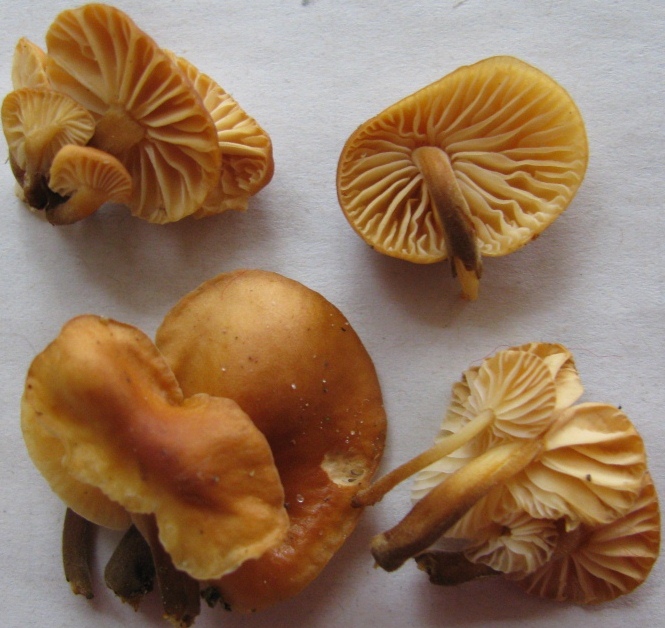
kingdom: Fungi
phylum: Basidiomycota
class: Agaricomycetes
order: Agaricales
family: Physalacriaceae
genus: Flammulina
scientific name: Flammulina velutipes
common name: gul fløjlsfod
